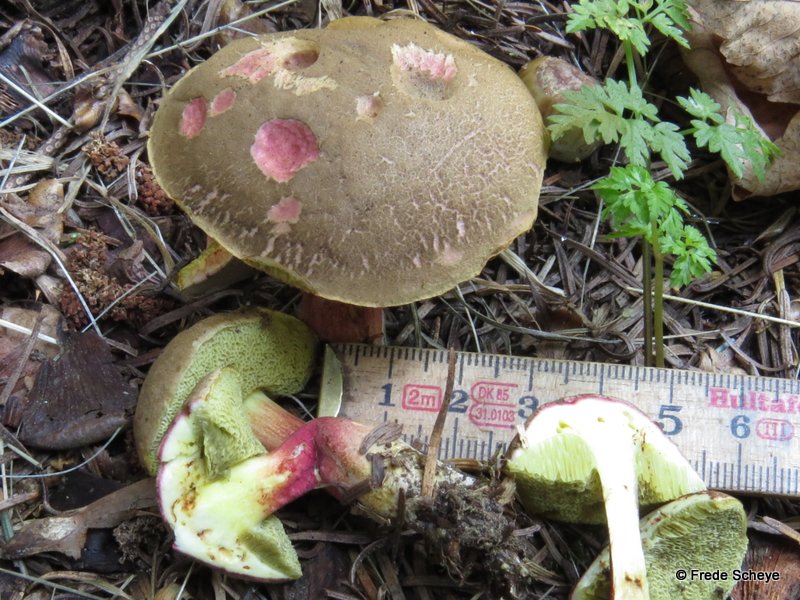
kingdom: Fungi
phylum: Basidiomycota
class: Agaricomycetes
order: Boletales
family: Boletaceae
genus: Xerocomellus
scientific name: Xerocomellus chrysenteron
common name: rødsprukken rørhat
